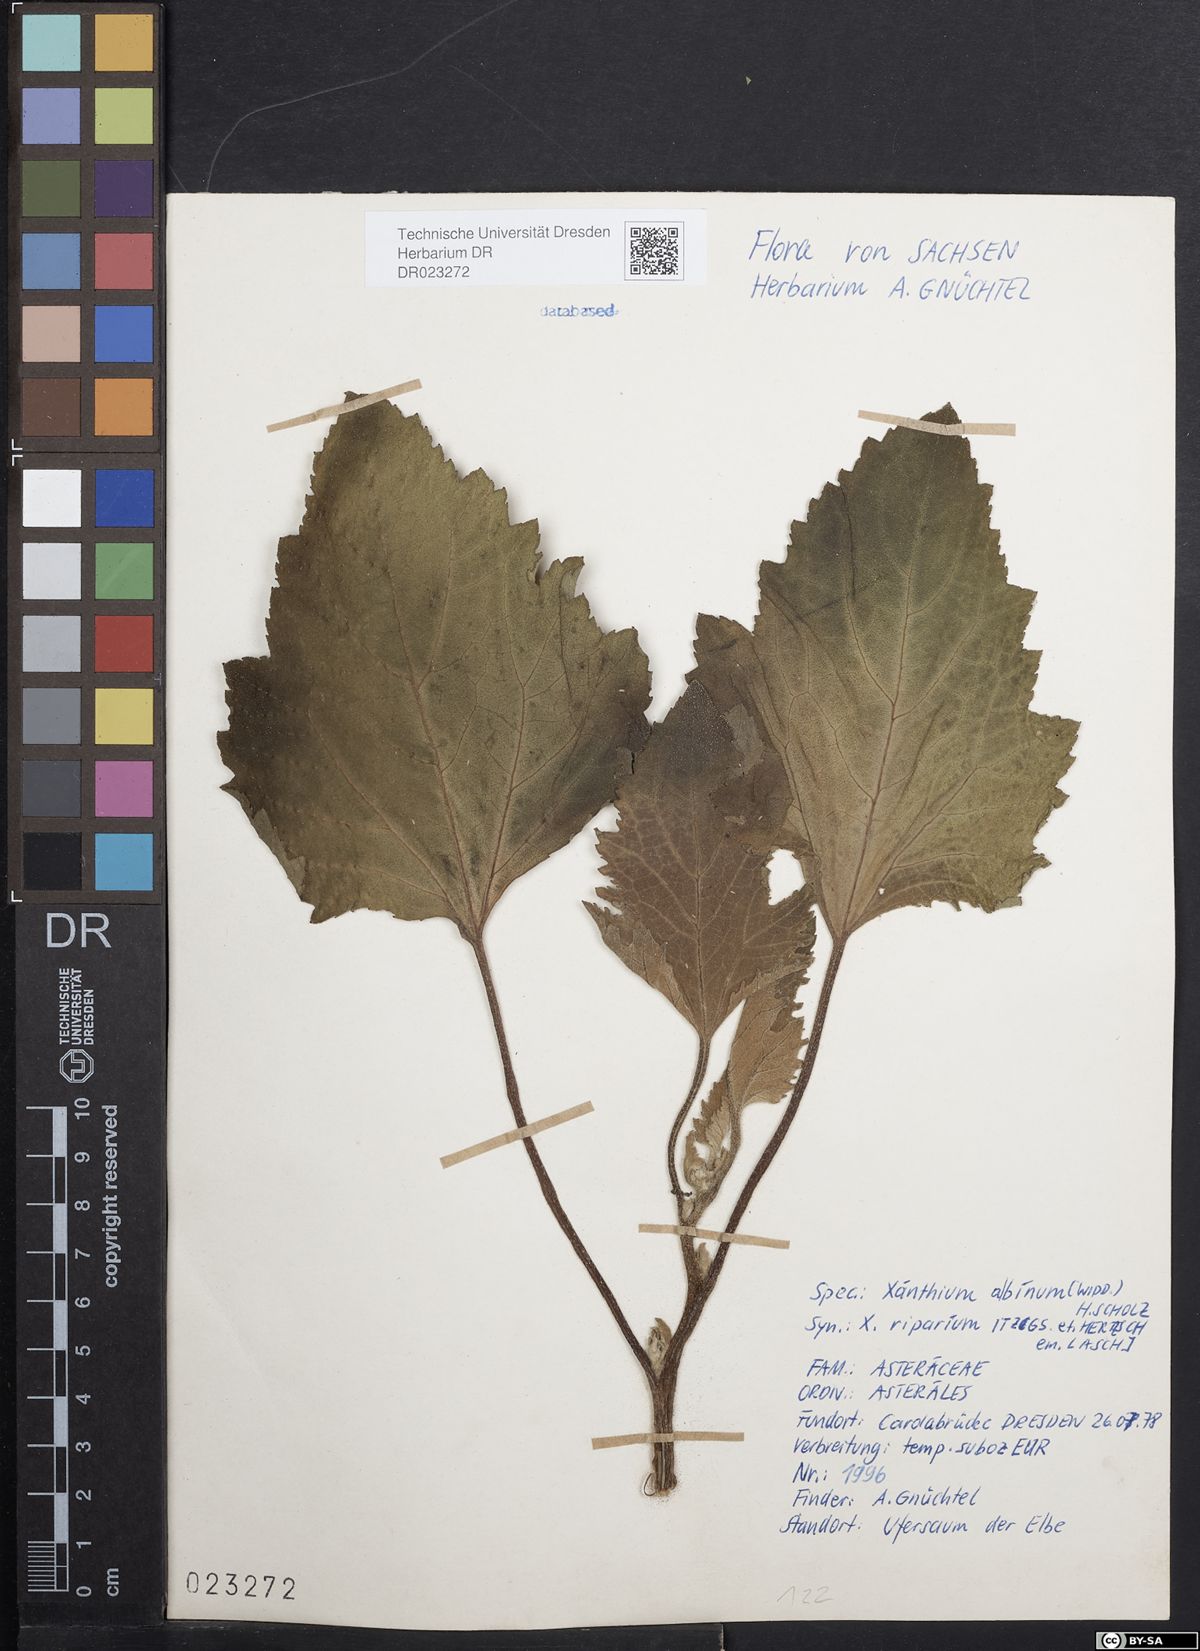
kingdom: Plantae
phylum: Tracheophyta
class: Magnoliopsida
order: Asterales
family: Asteraceae
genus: Xanthium
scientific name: Xanthium orientale
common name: Californian burr
